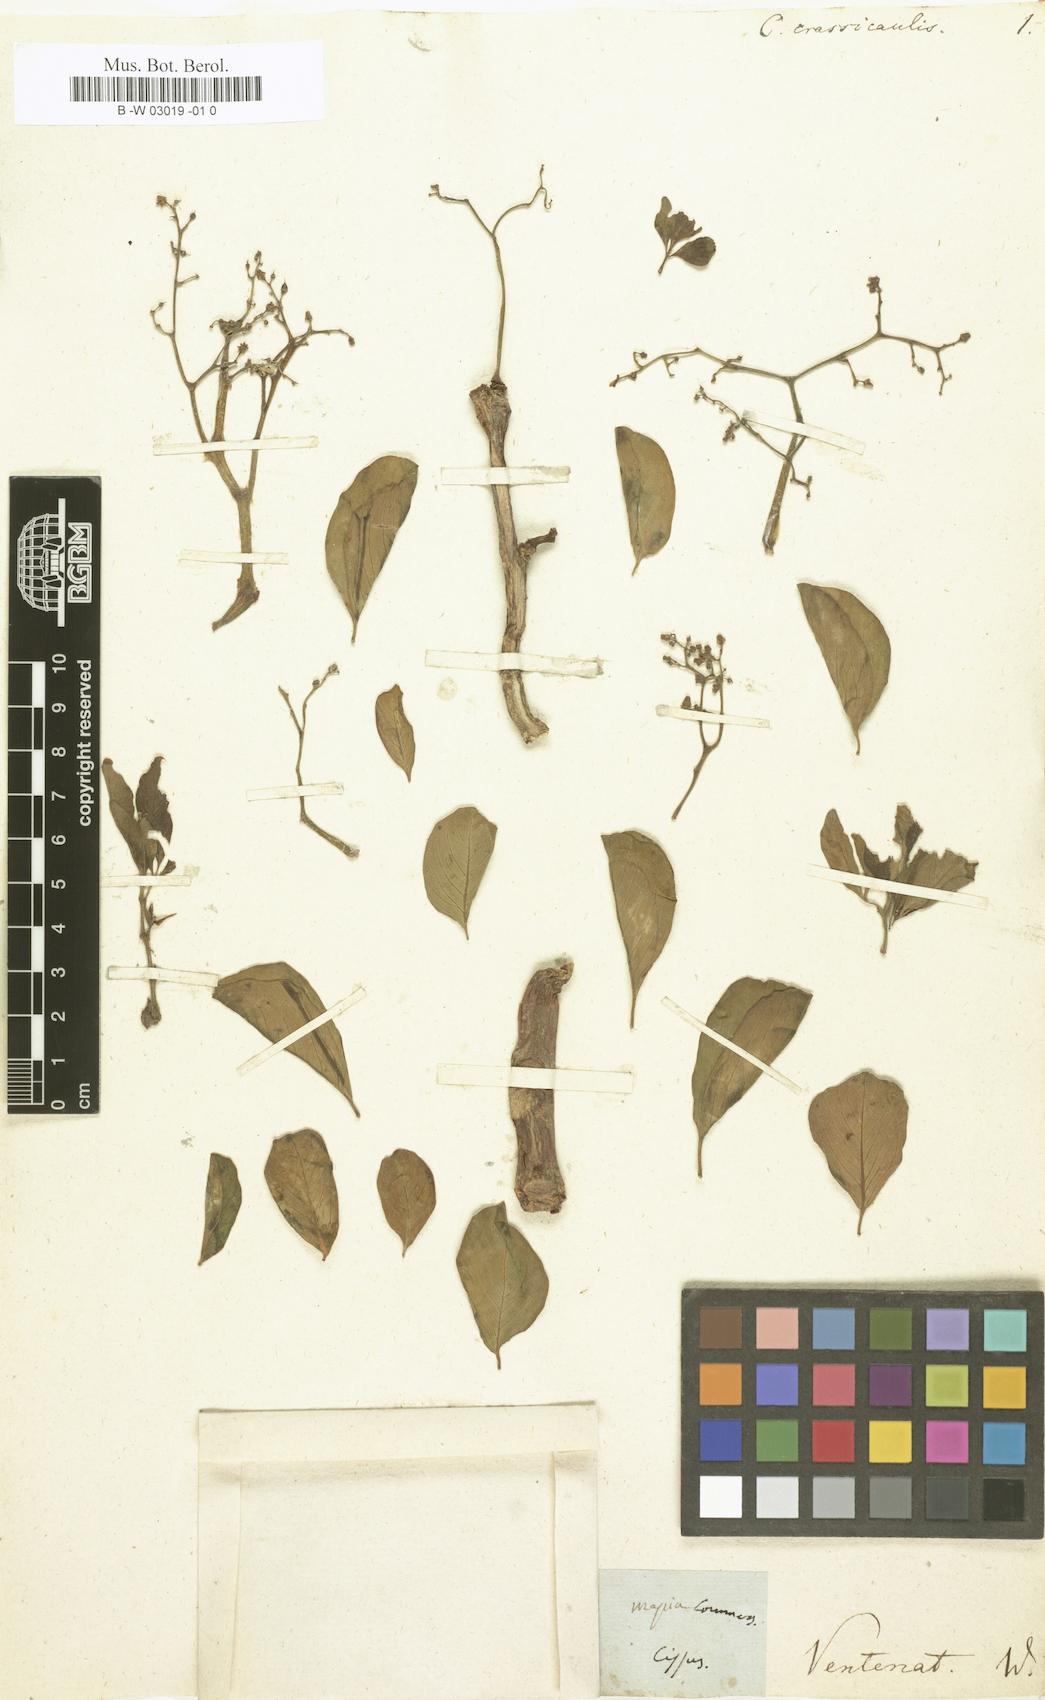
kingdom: Plantae
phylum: Tracheophyta
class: Magnoliopsida
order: Vitales
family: Vitaceae
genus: Cissus
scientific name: Cissus
